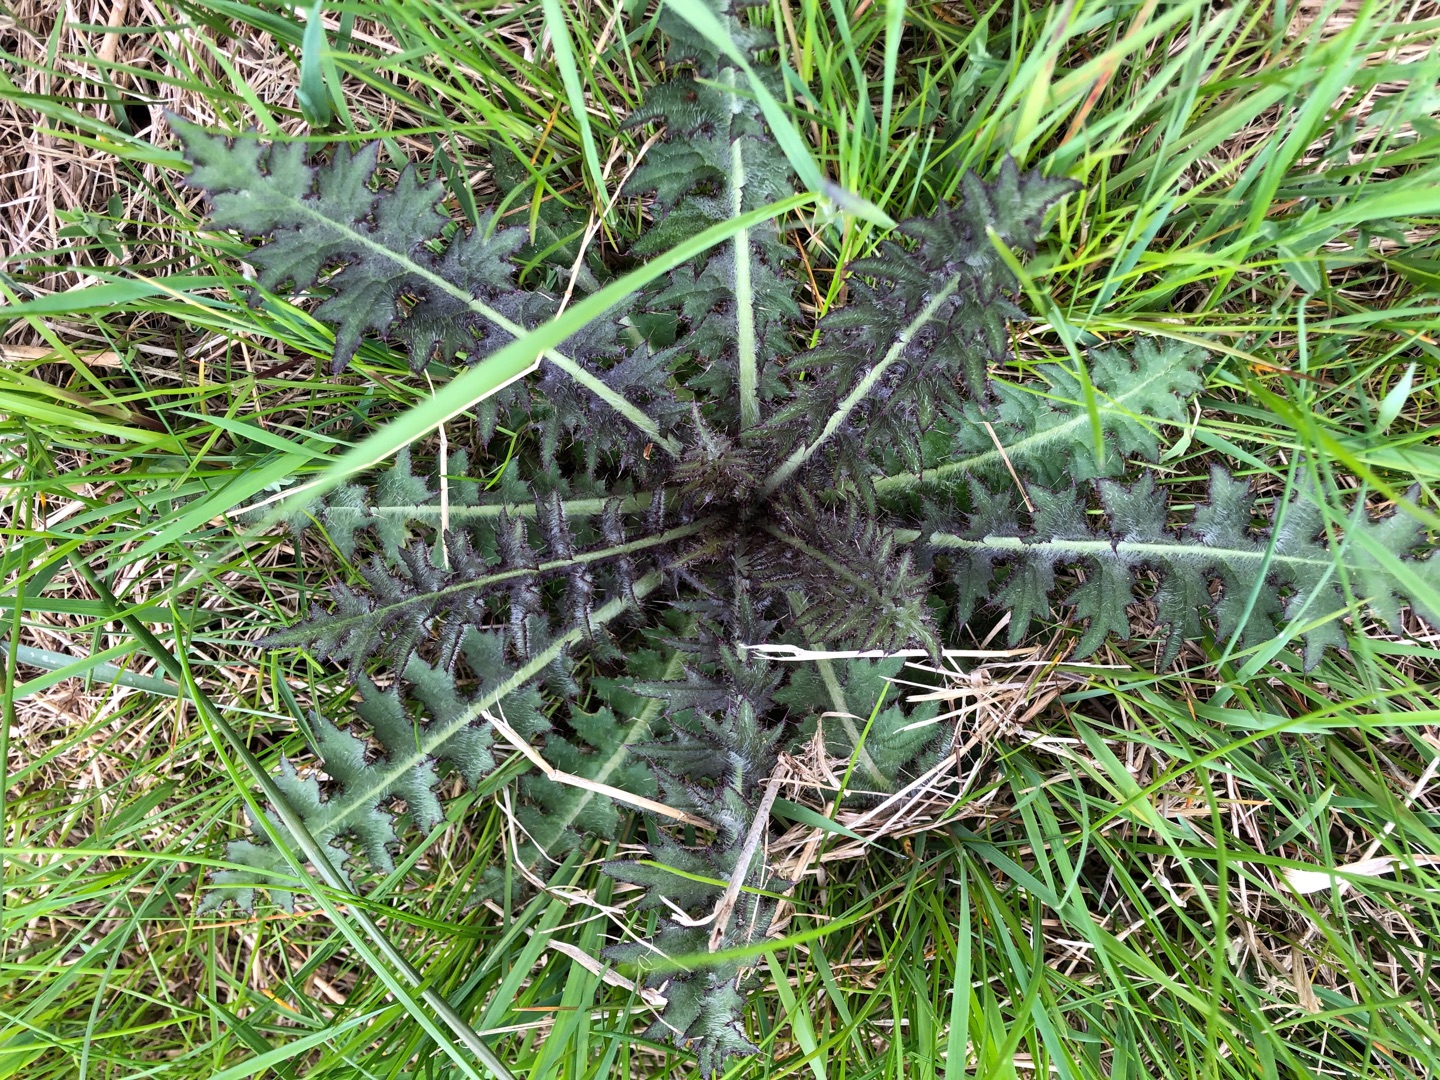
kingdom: Plantae
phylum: Tracheophyta
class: Magnoliopsida
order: Asterales
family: Asteraceae
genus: Cirsium
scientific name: Cirsium palustre
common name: Kær-tidsel
